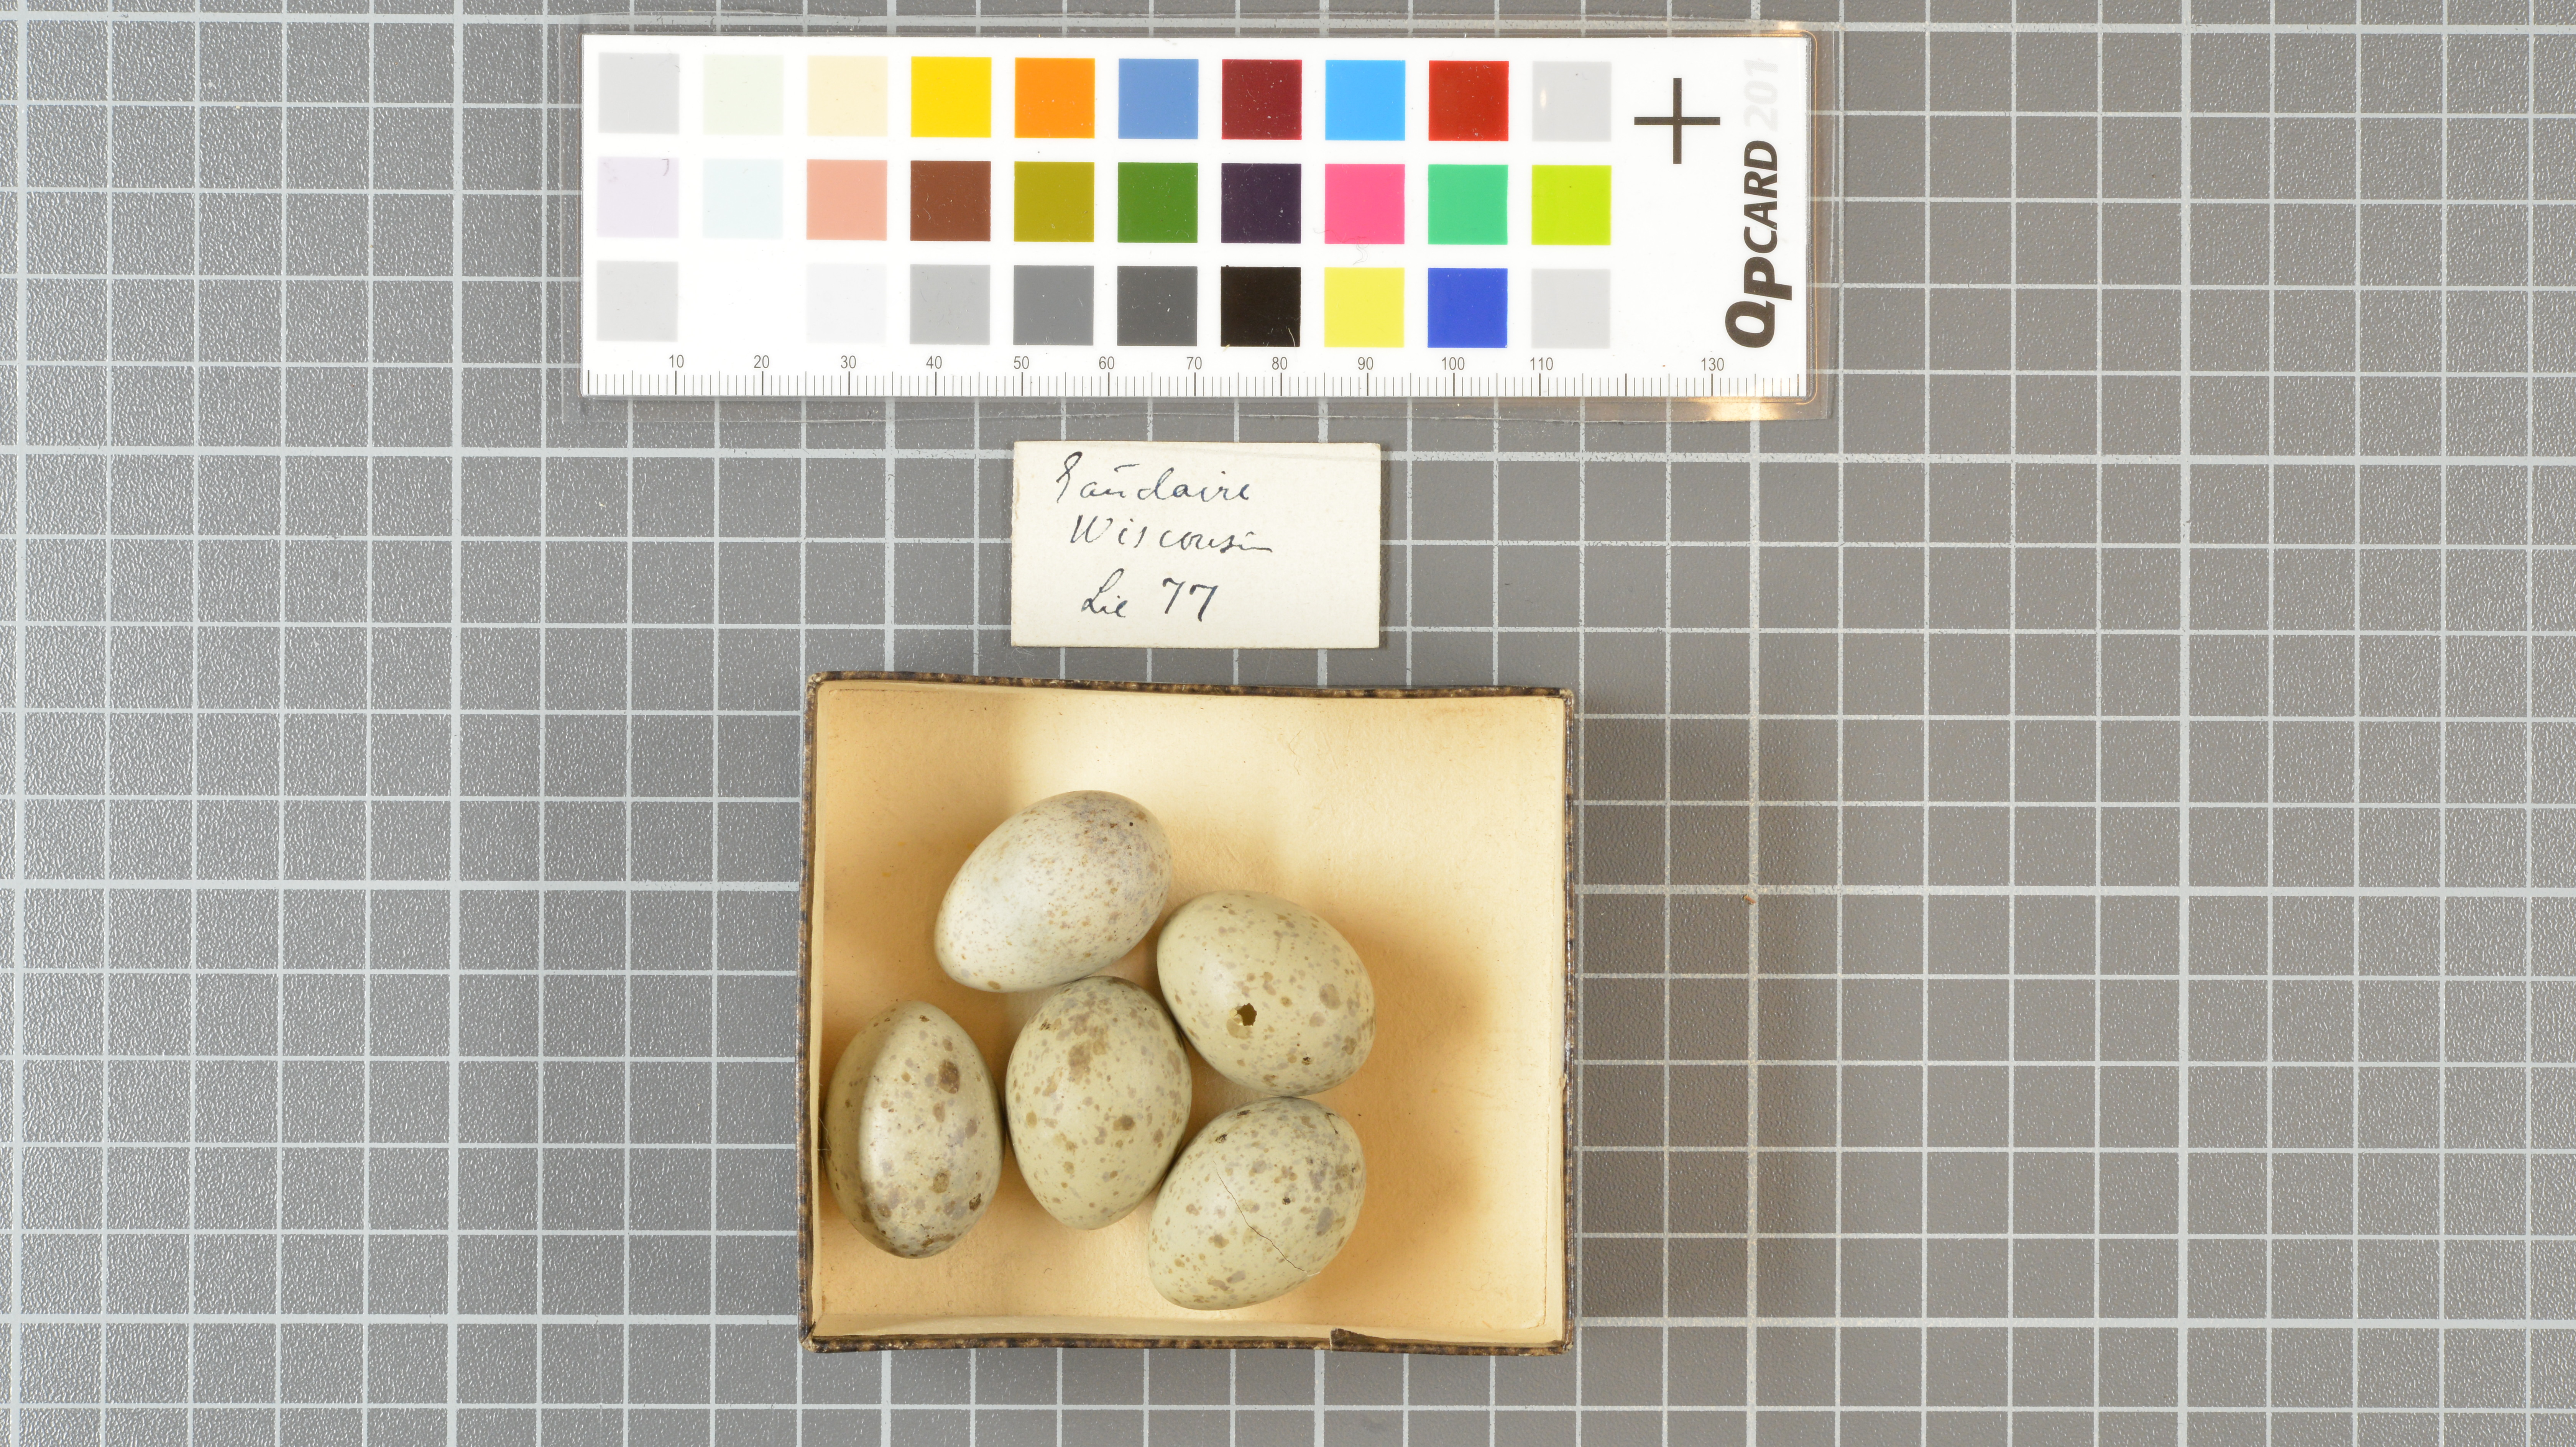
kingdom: Animalia
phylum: Chordata
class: Aves
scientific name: Aves
